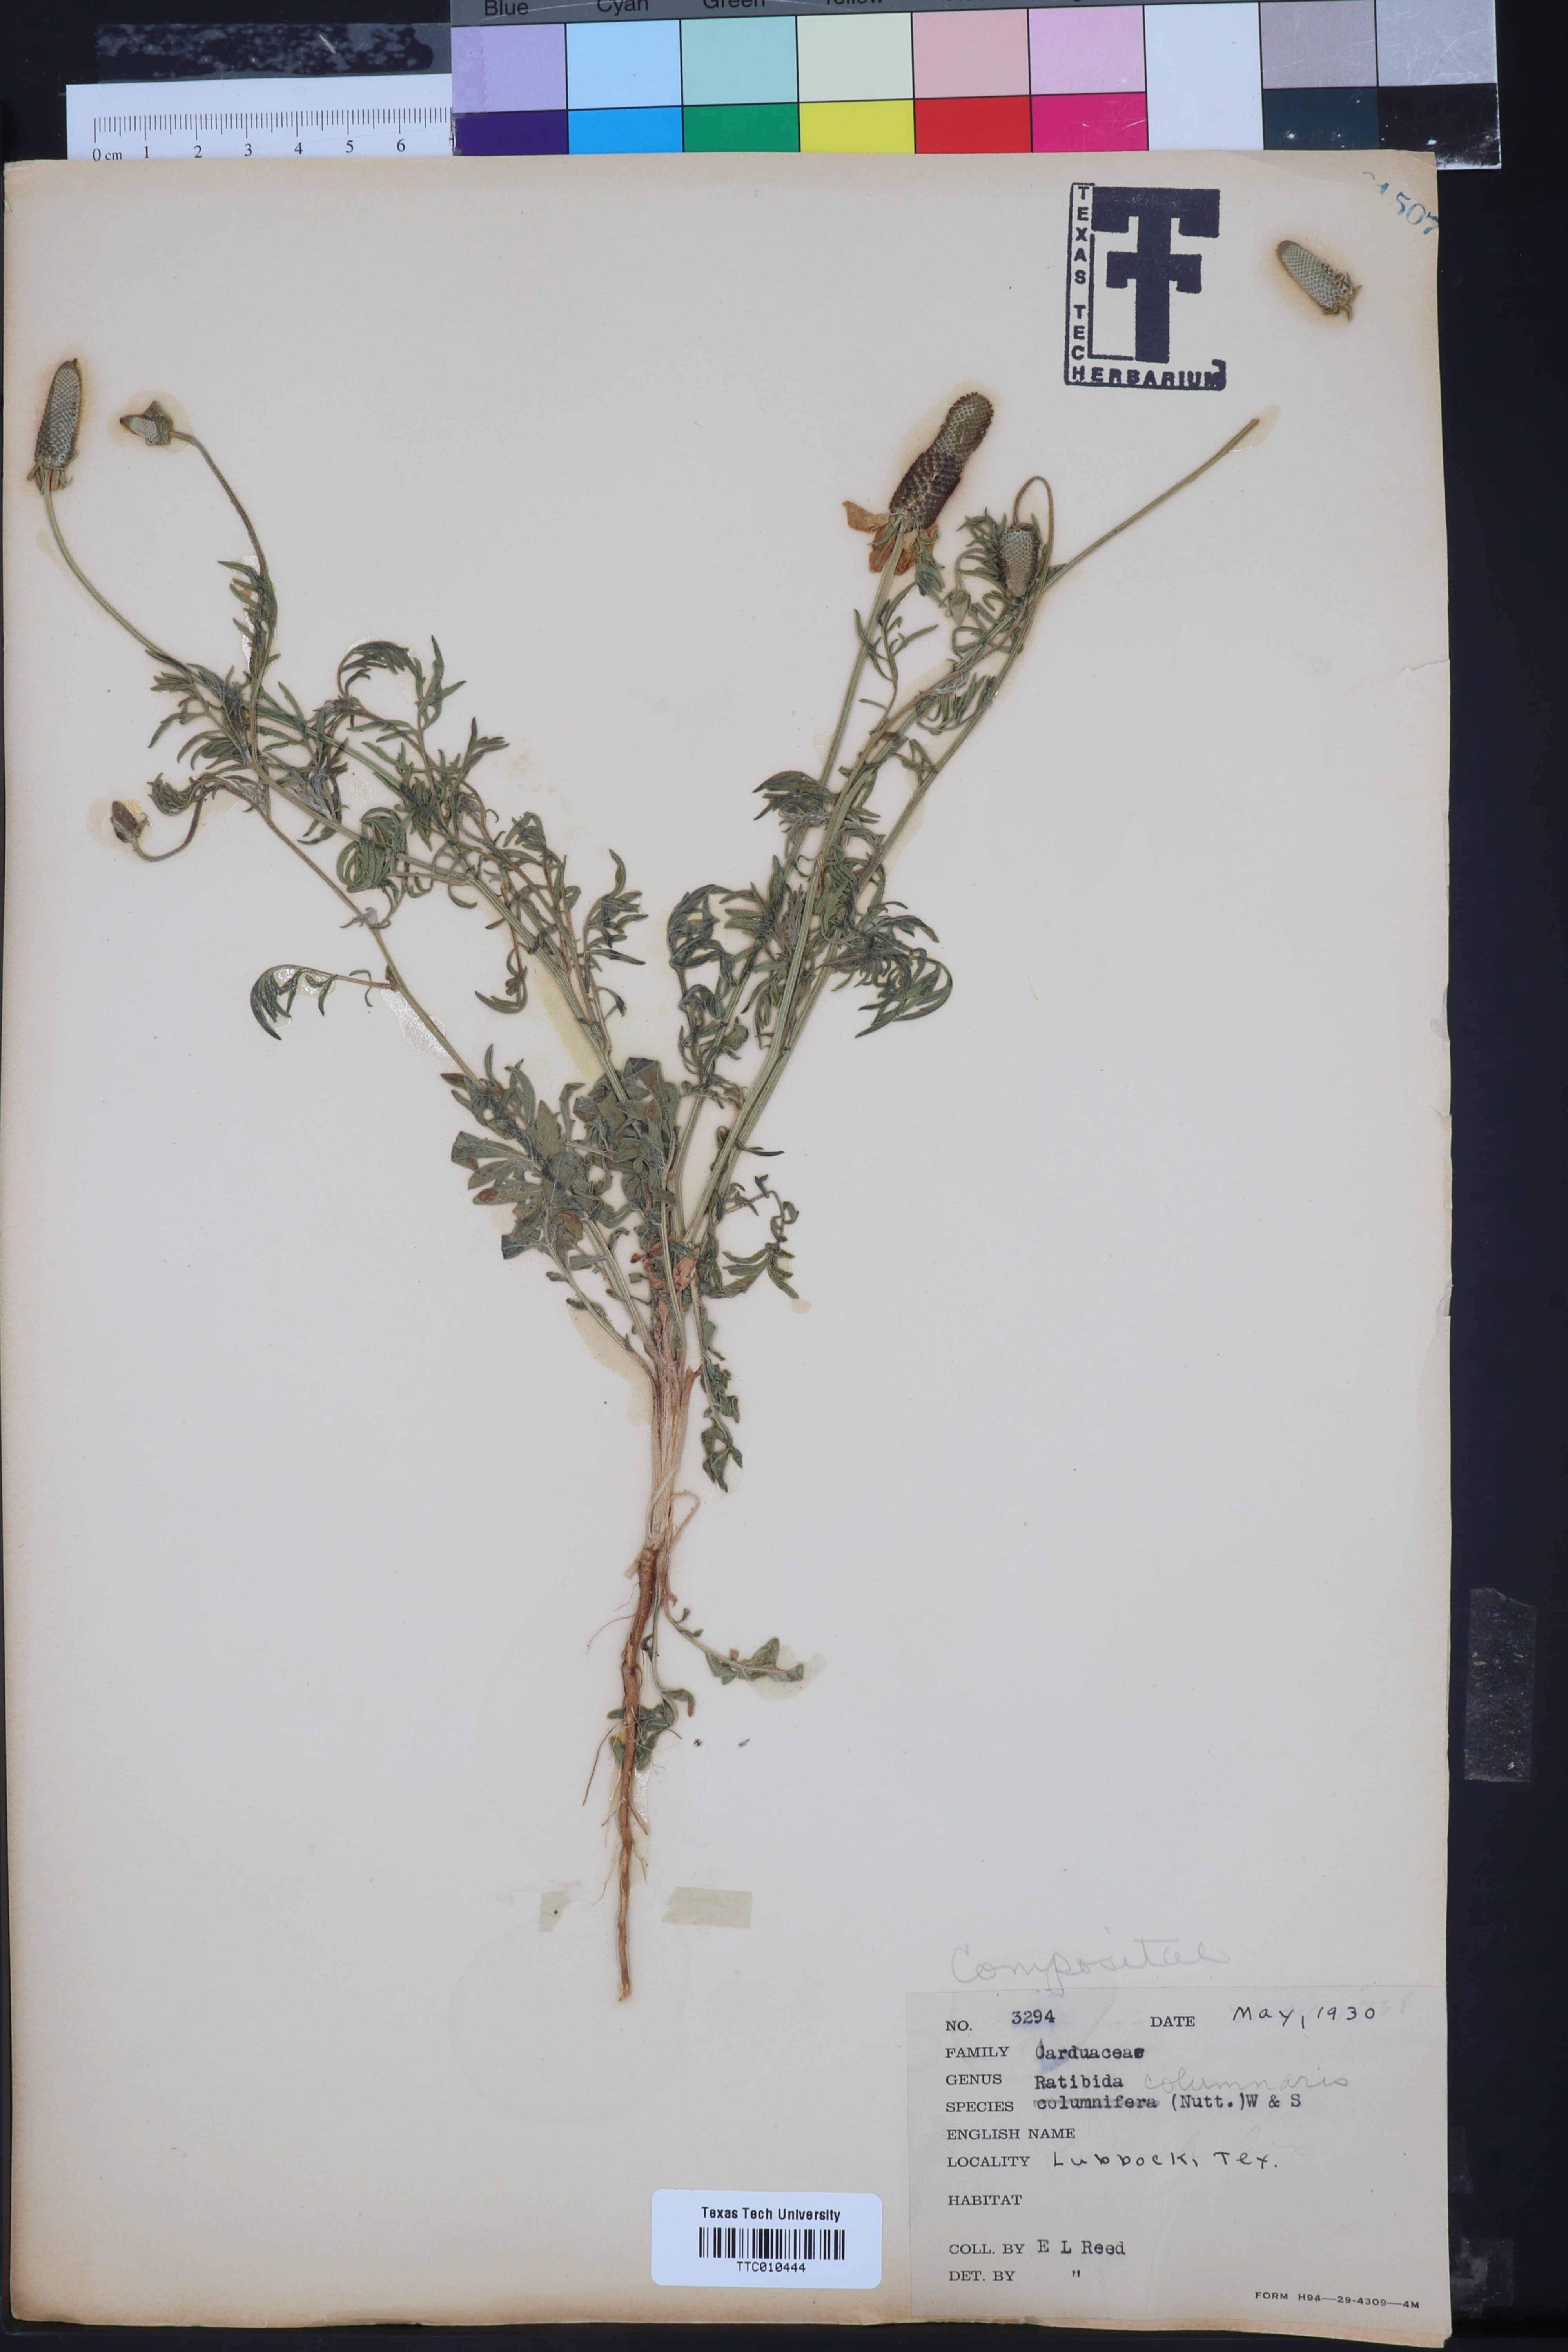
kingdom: Plantae
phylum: Tracheophyta
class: Magnoliopsida
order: Asterales
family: Asteraceae
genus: Ratibida
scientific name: Ratibida columnifera
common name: Prairie coneflower
